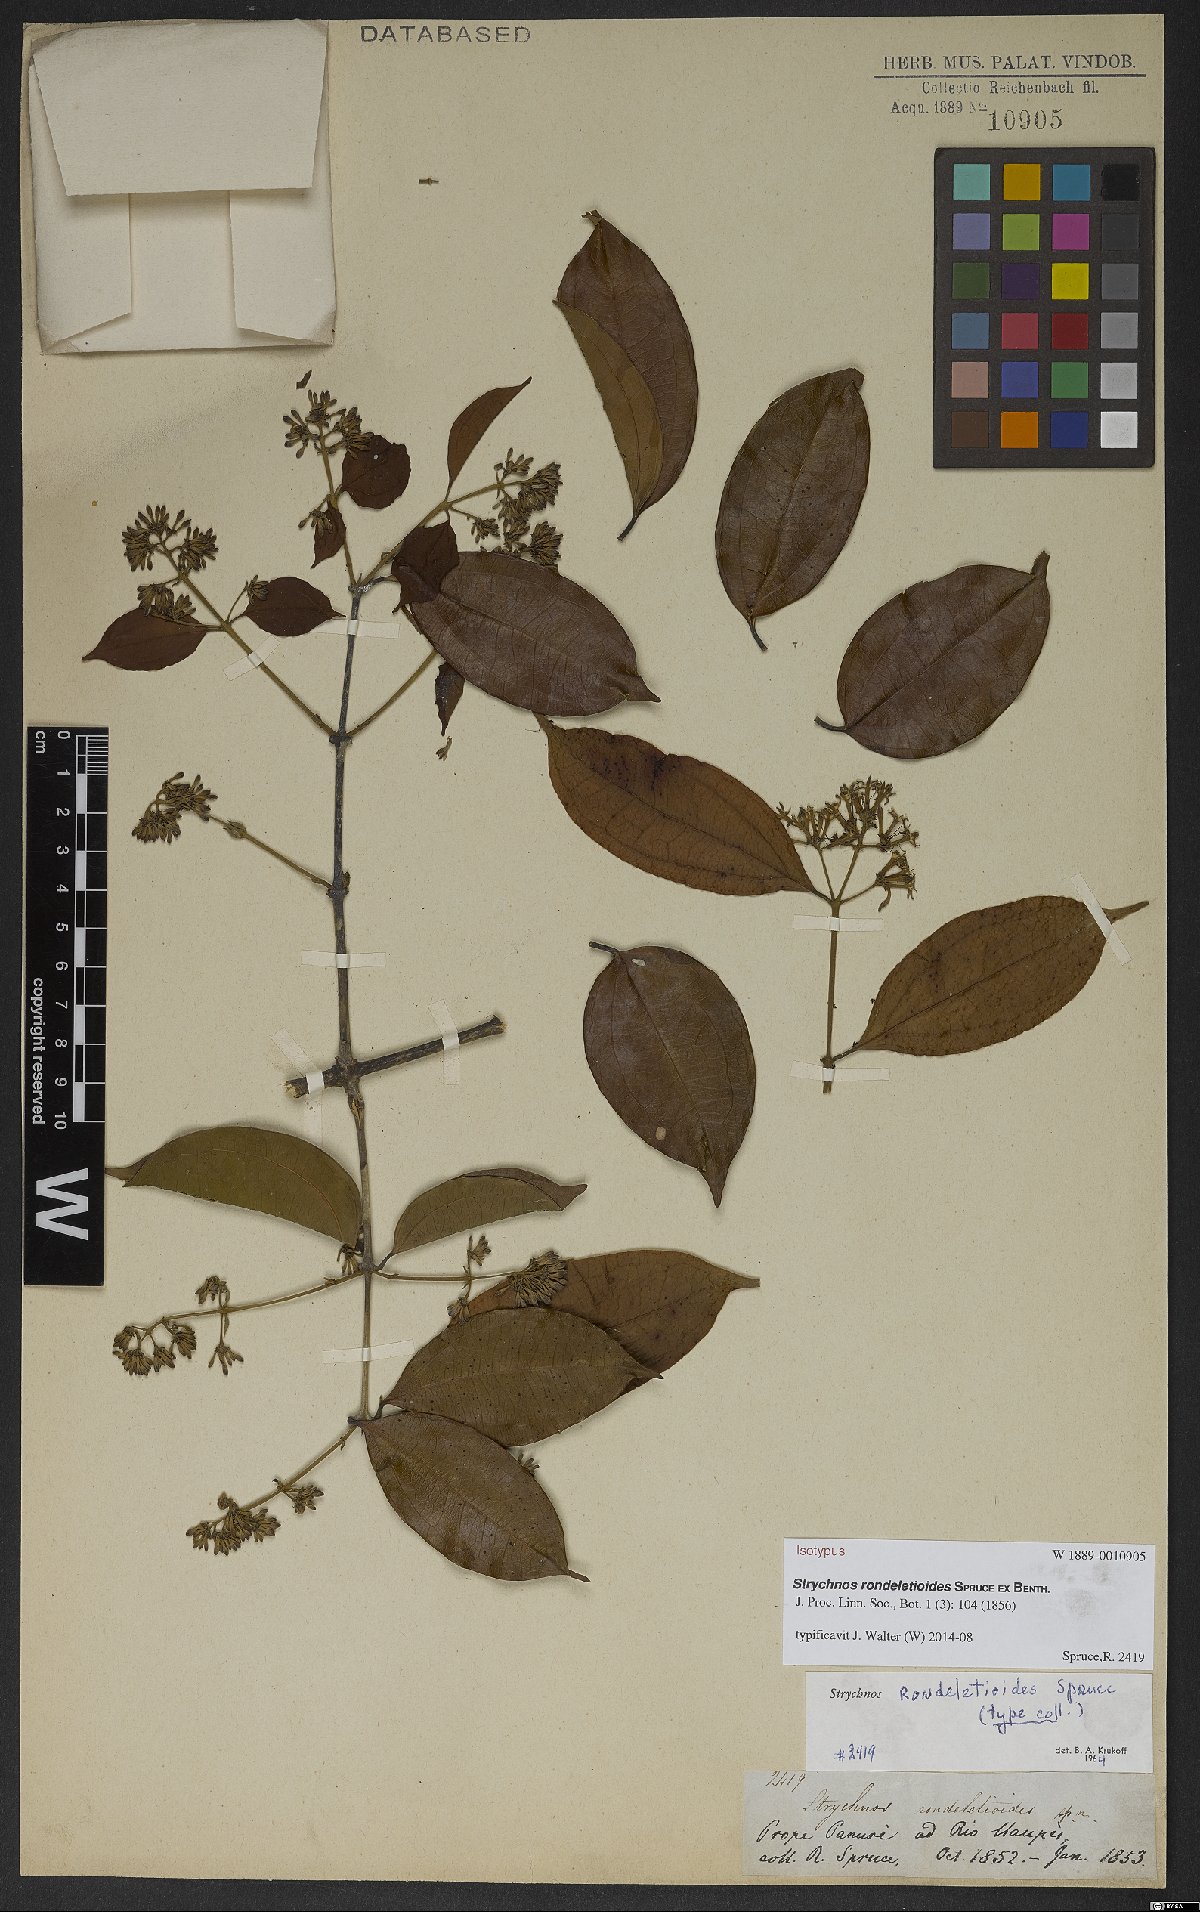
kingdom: Plantae
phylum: Tracheophyta
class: Magnoliopsida
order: Gentianales
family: Loganiaceae
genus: Strychnos
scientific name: Strychnos rondeletioides
